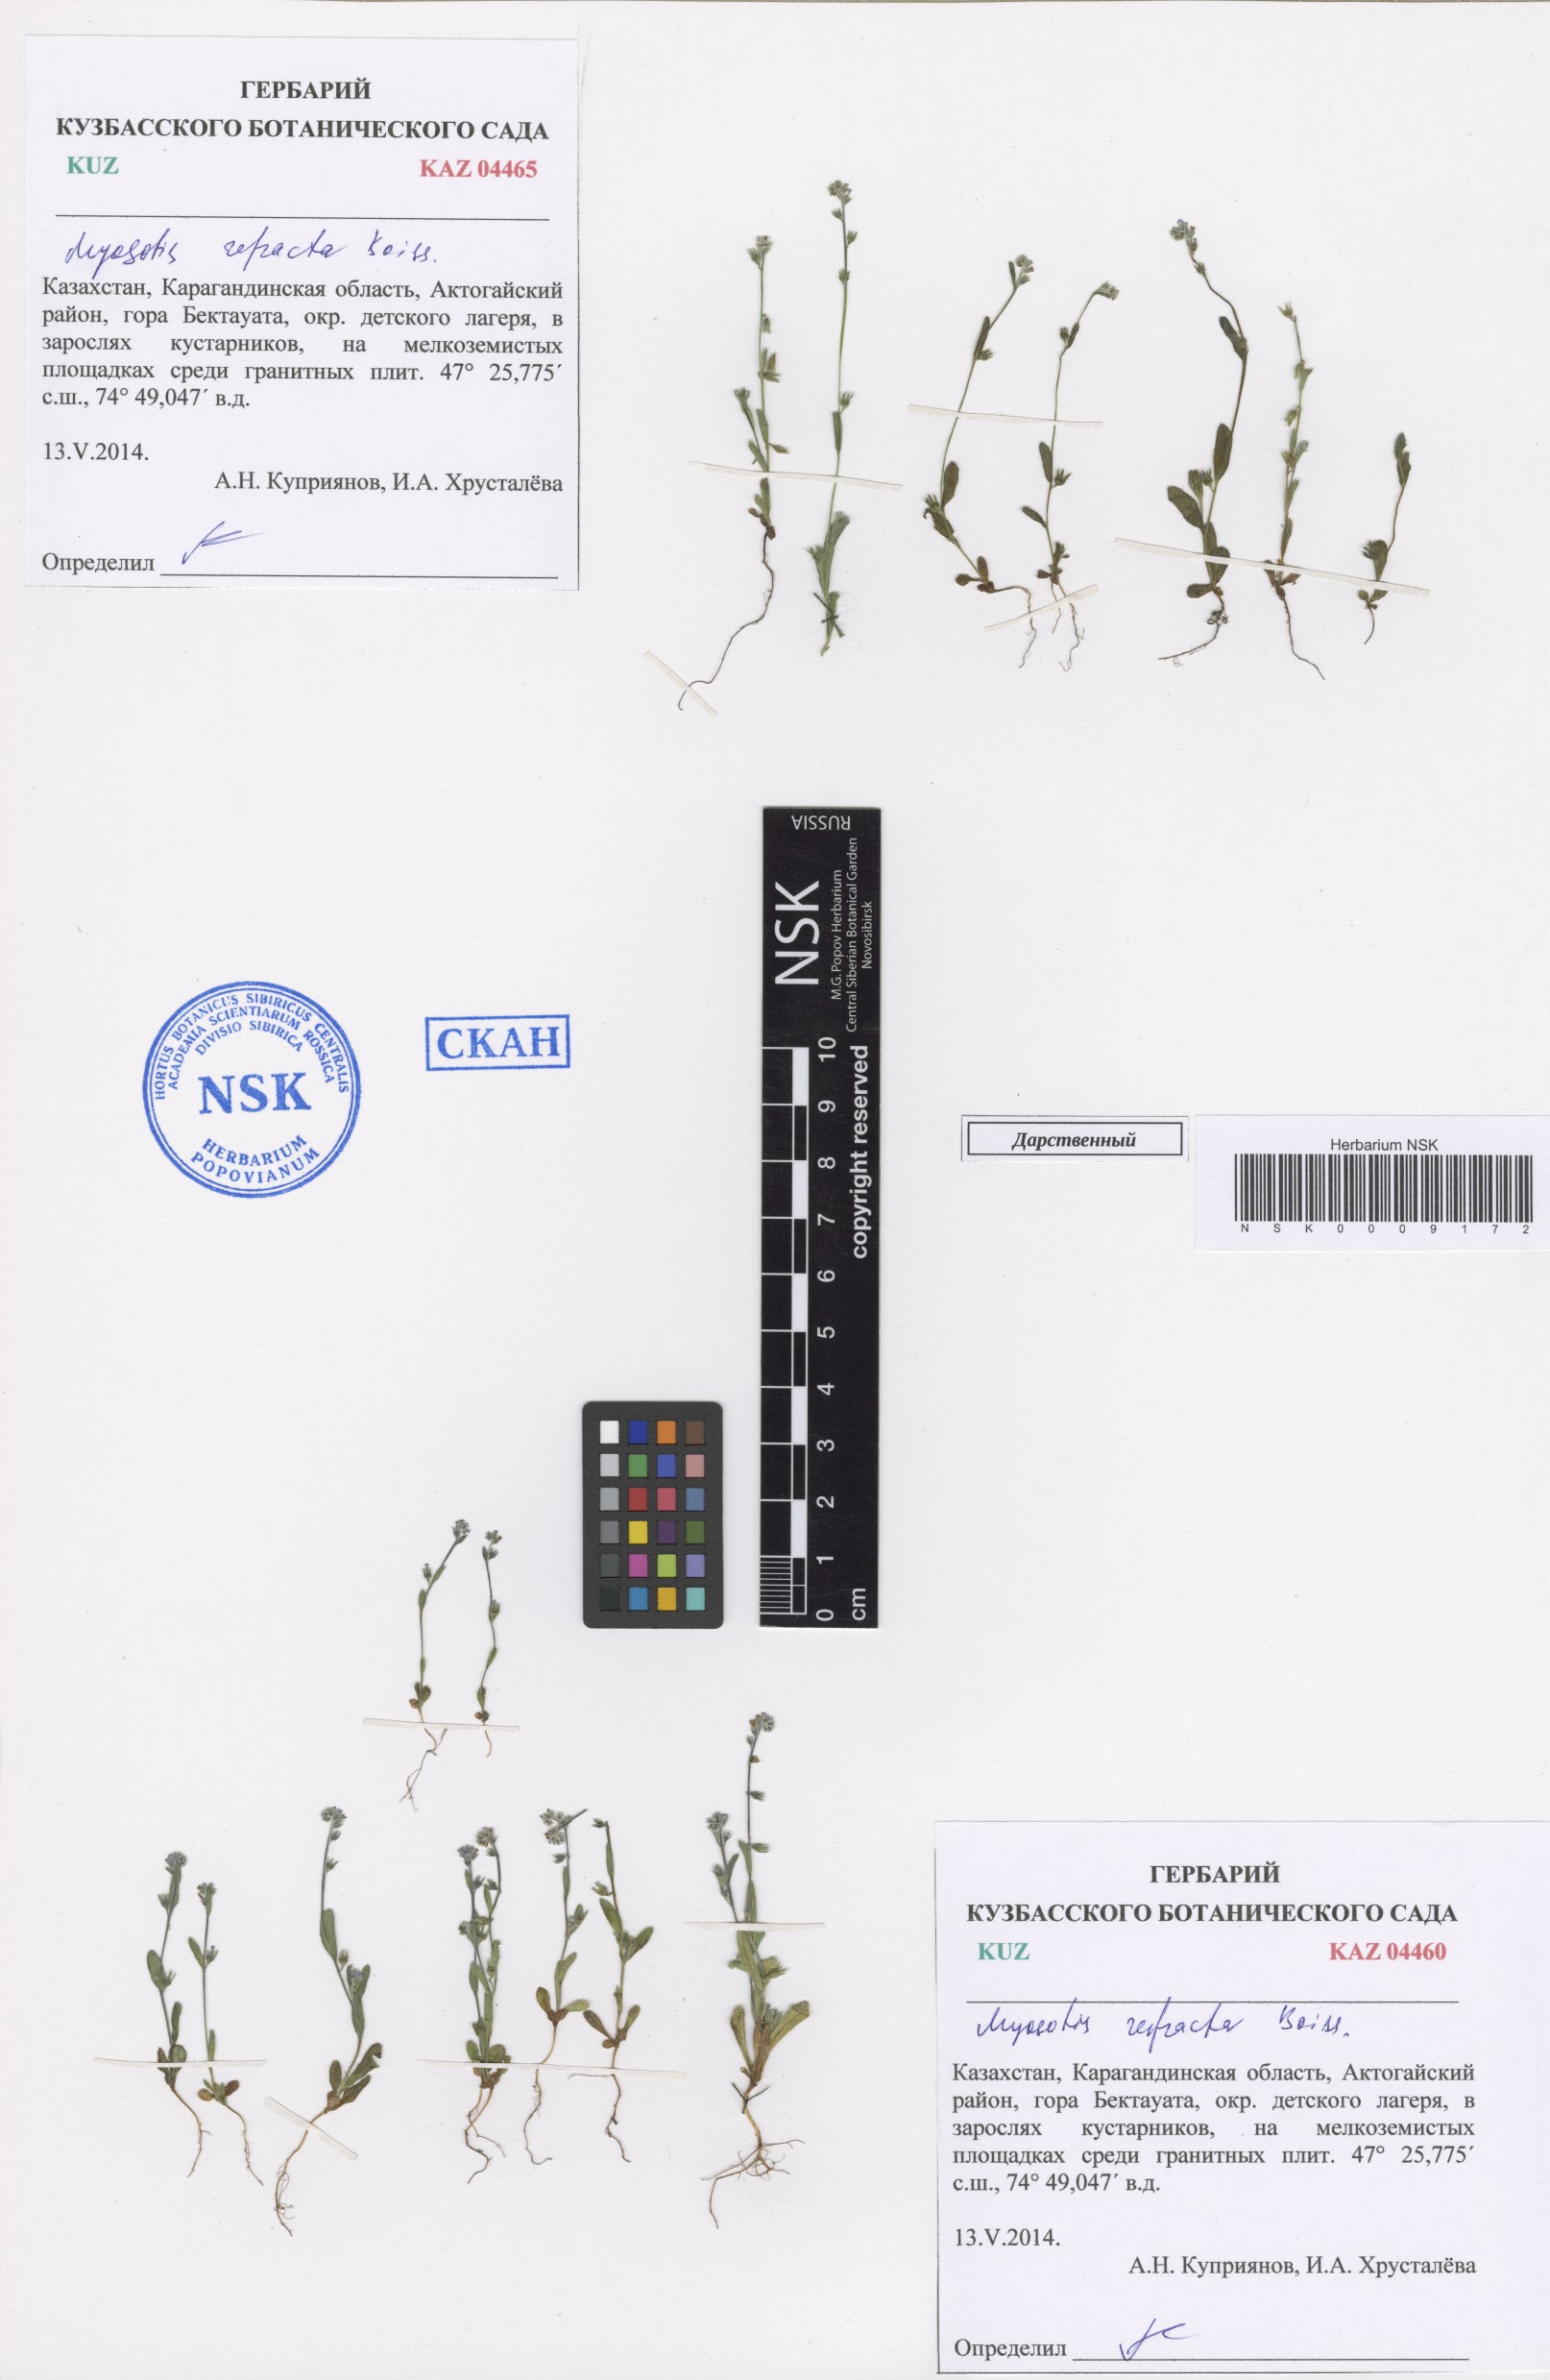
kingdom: Plantae
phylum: Tracheophyta
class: Magnoliopsida
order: Boraginales
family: Boraginaceae
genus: Myosotis
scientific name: Myosotis refracta
